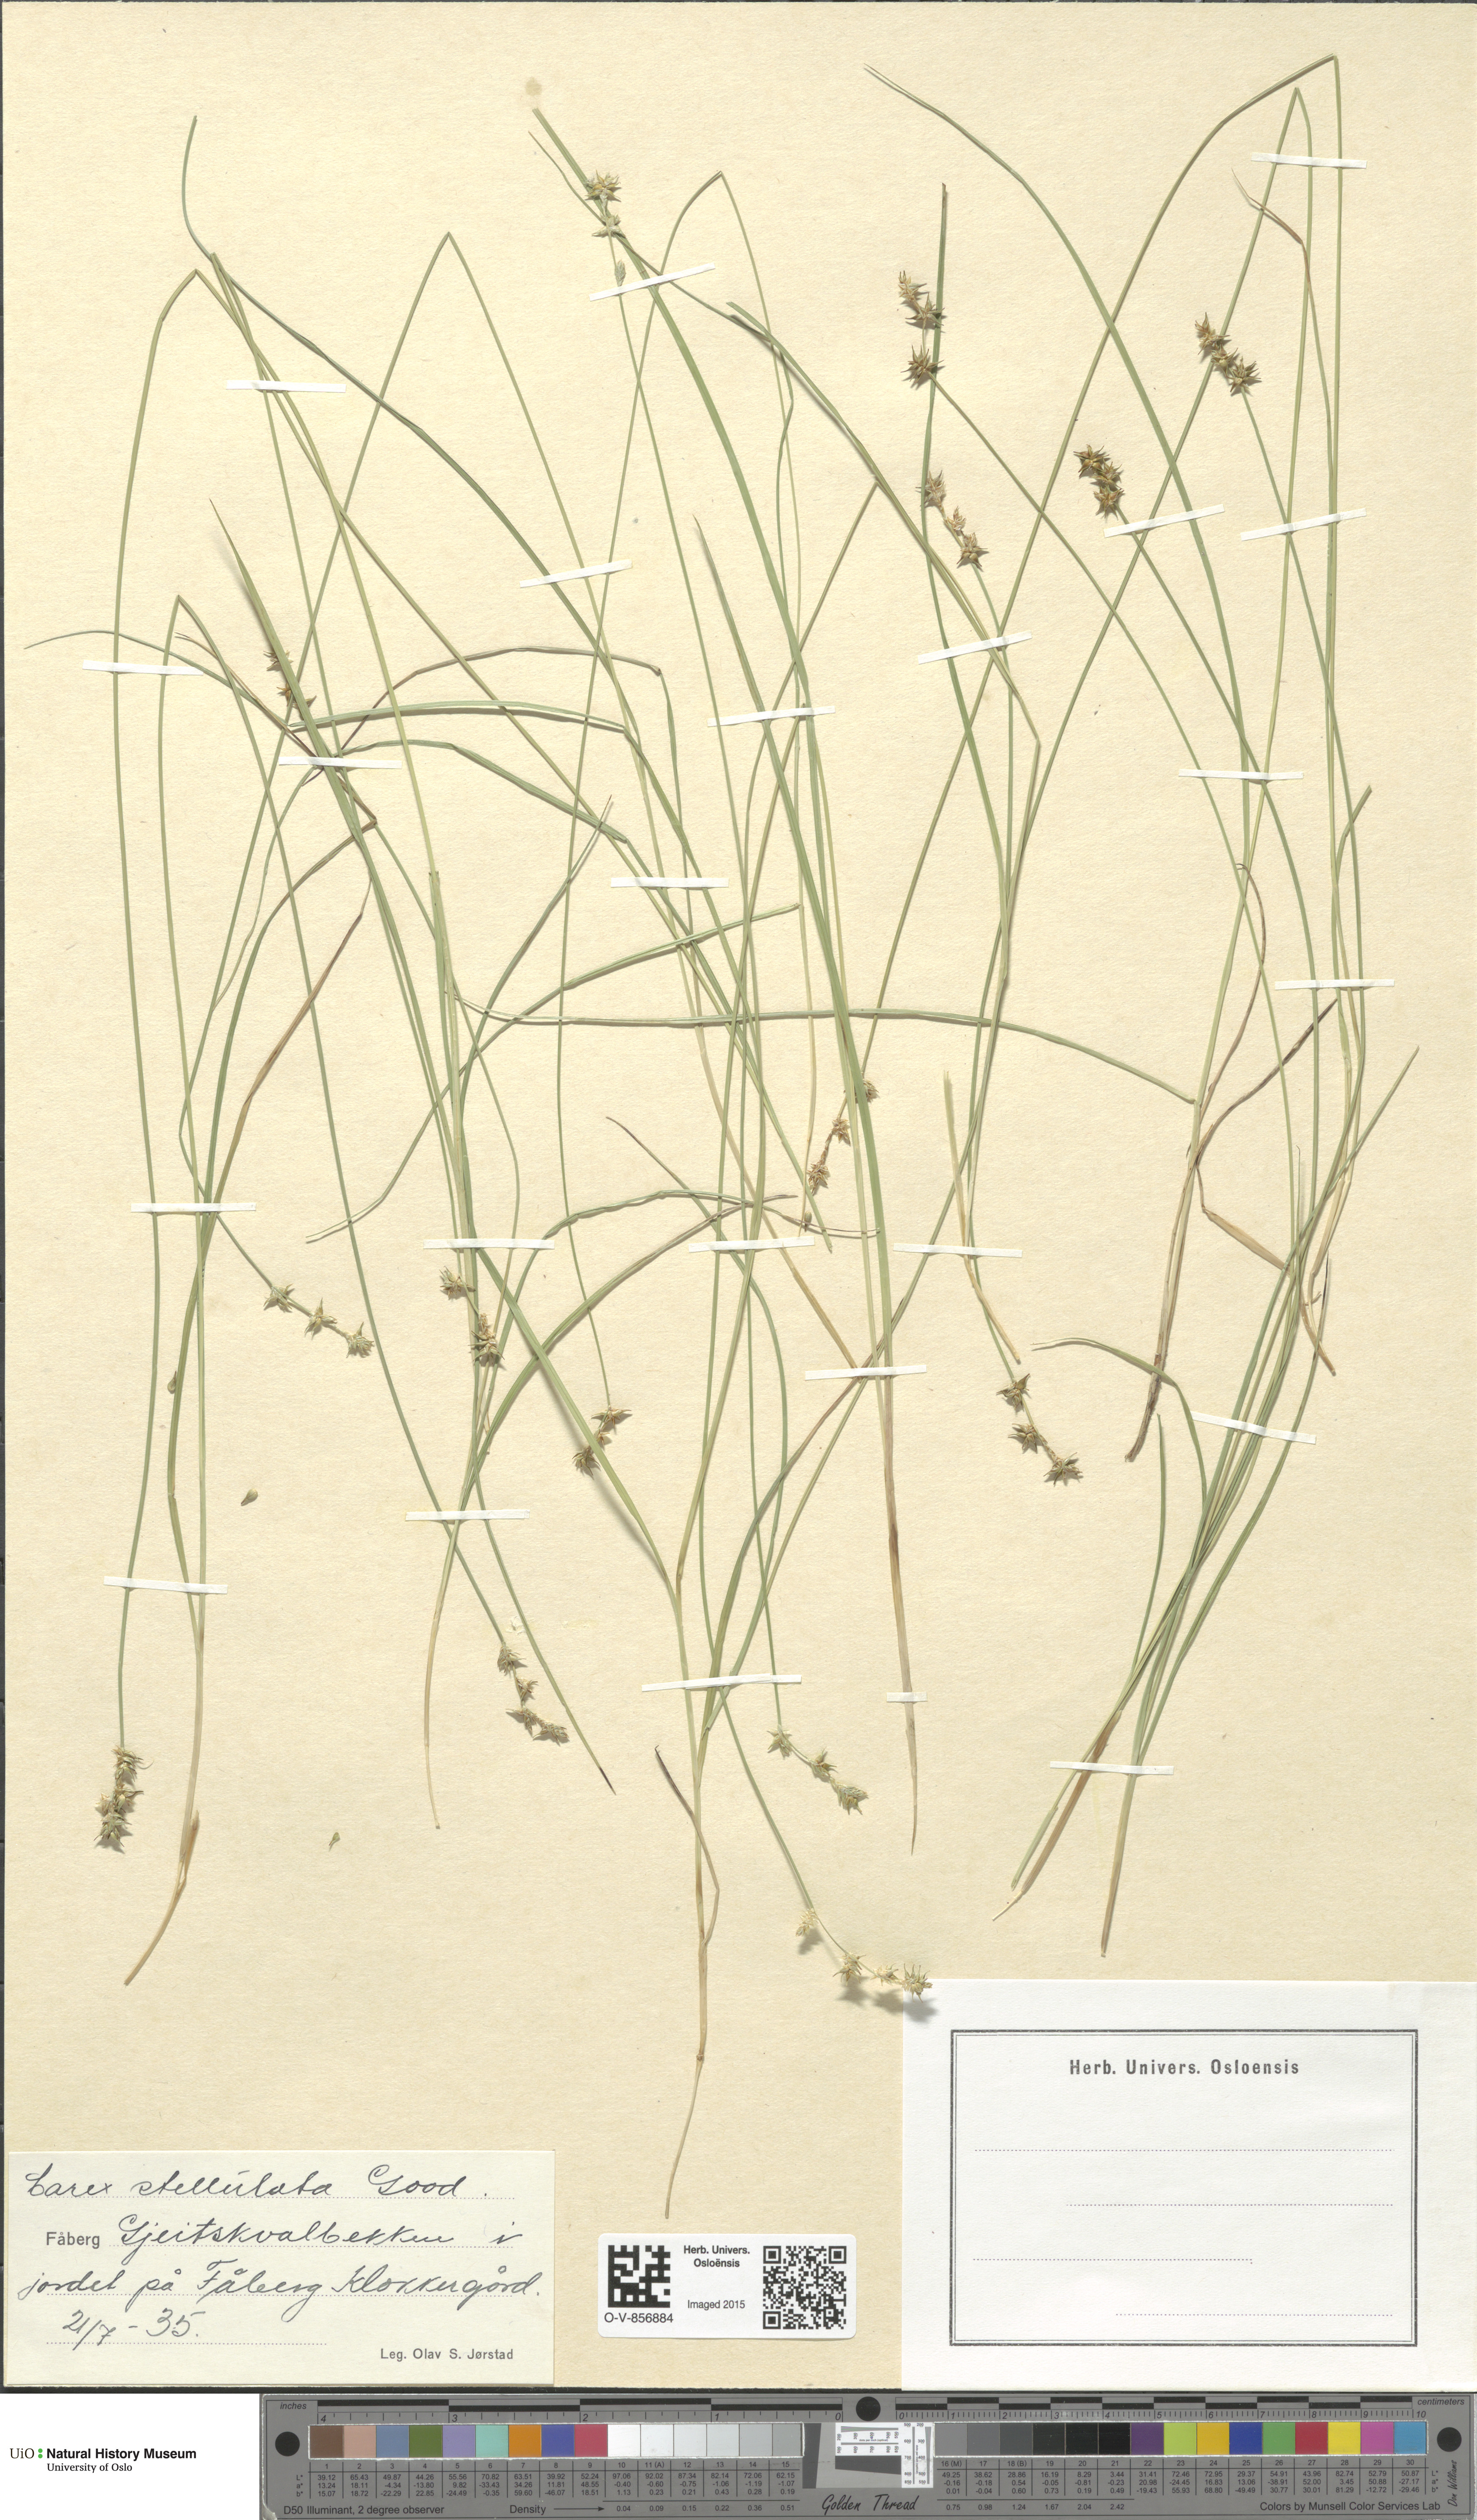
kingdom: Plantae
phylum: Tracheophyta
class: Liliopsida
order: Poales
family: Cyperaceae
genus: Carex
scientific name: Carex echinata
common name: Star sedge
